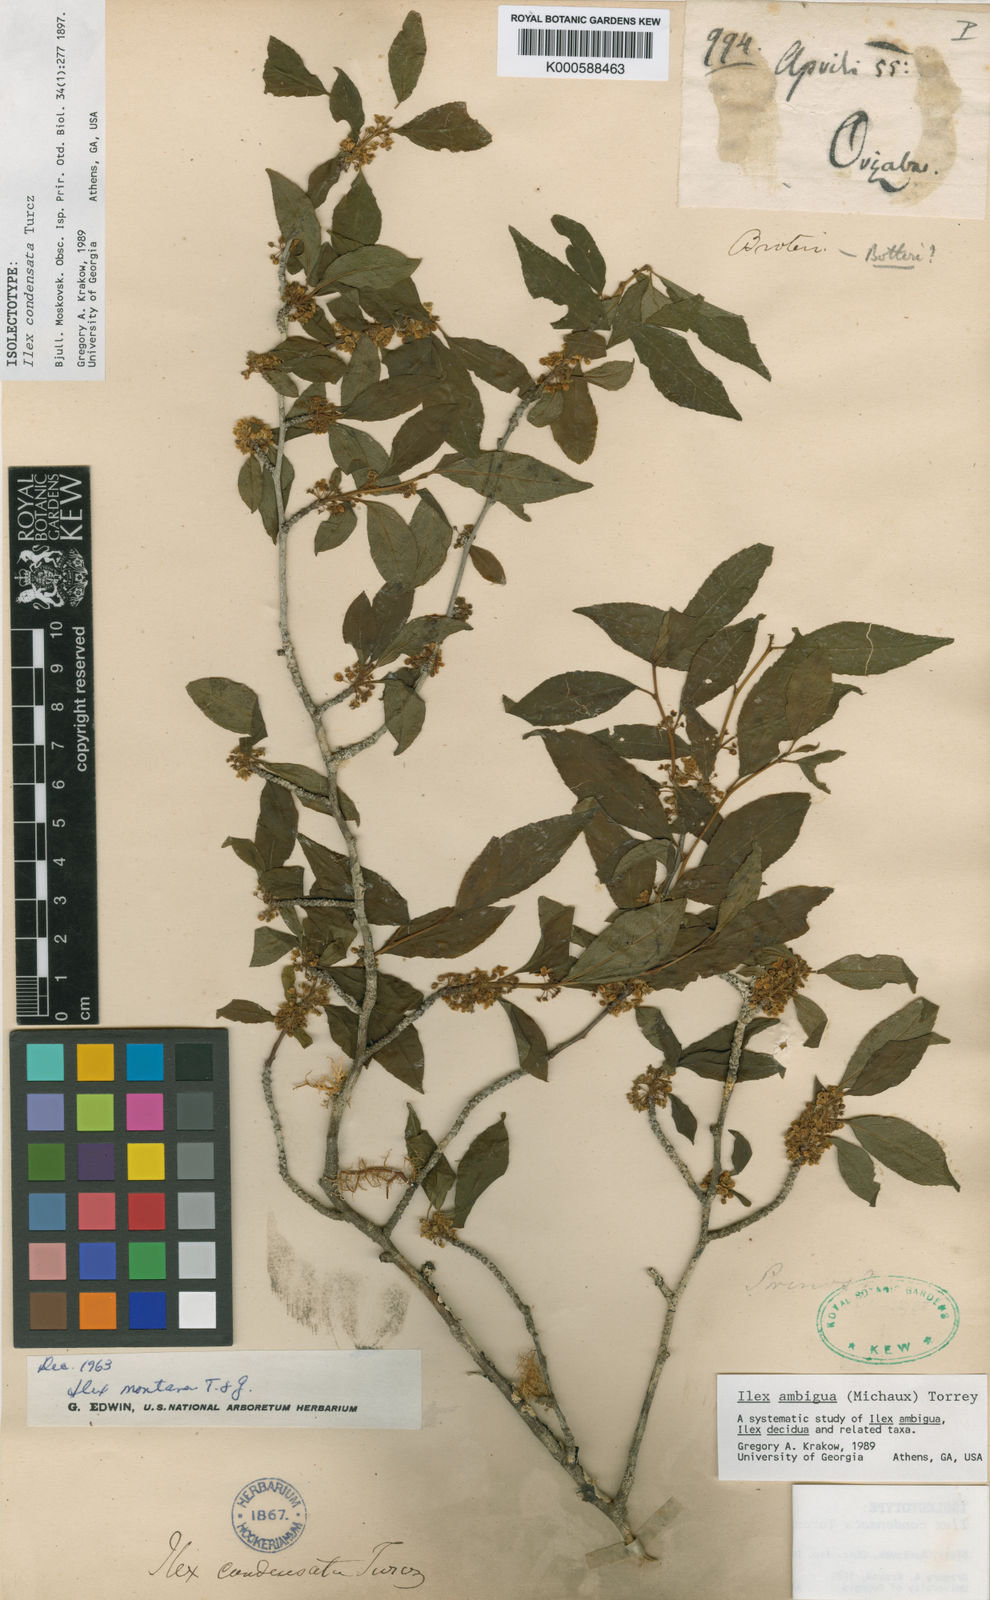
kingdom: Plantae
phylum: Tracheophyta
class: Magnoliopsida
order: Aquifoliales
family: Aquifoliaceae
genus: Ilex
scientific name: Ilex ambigua
